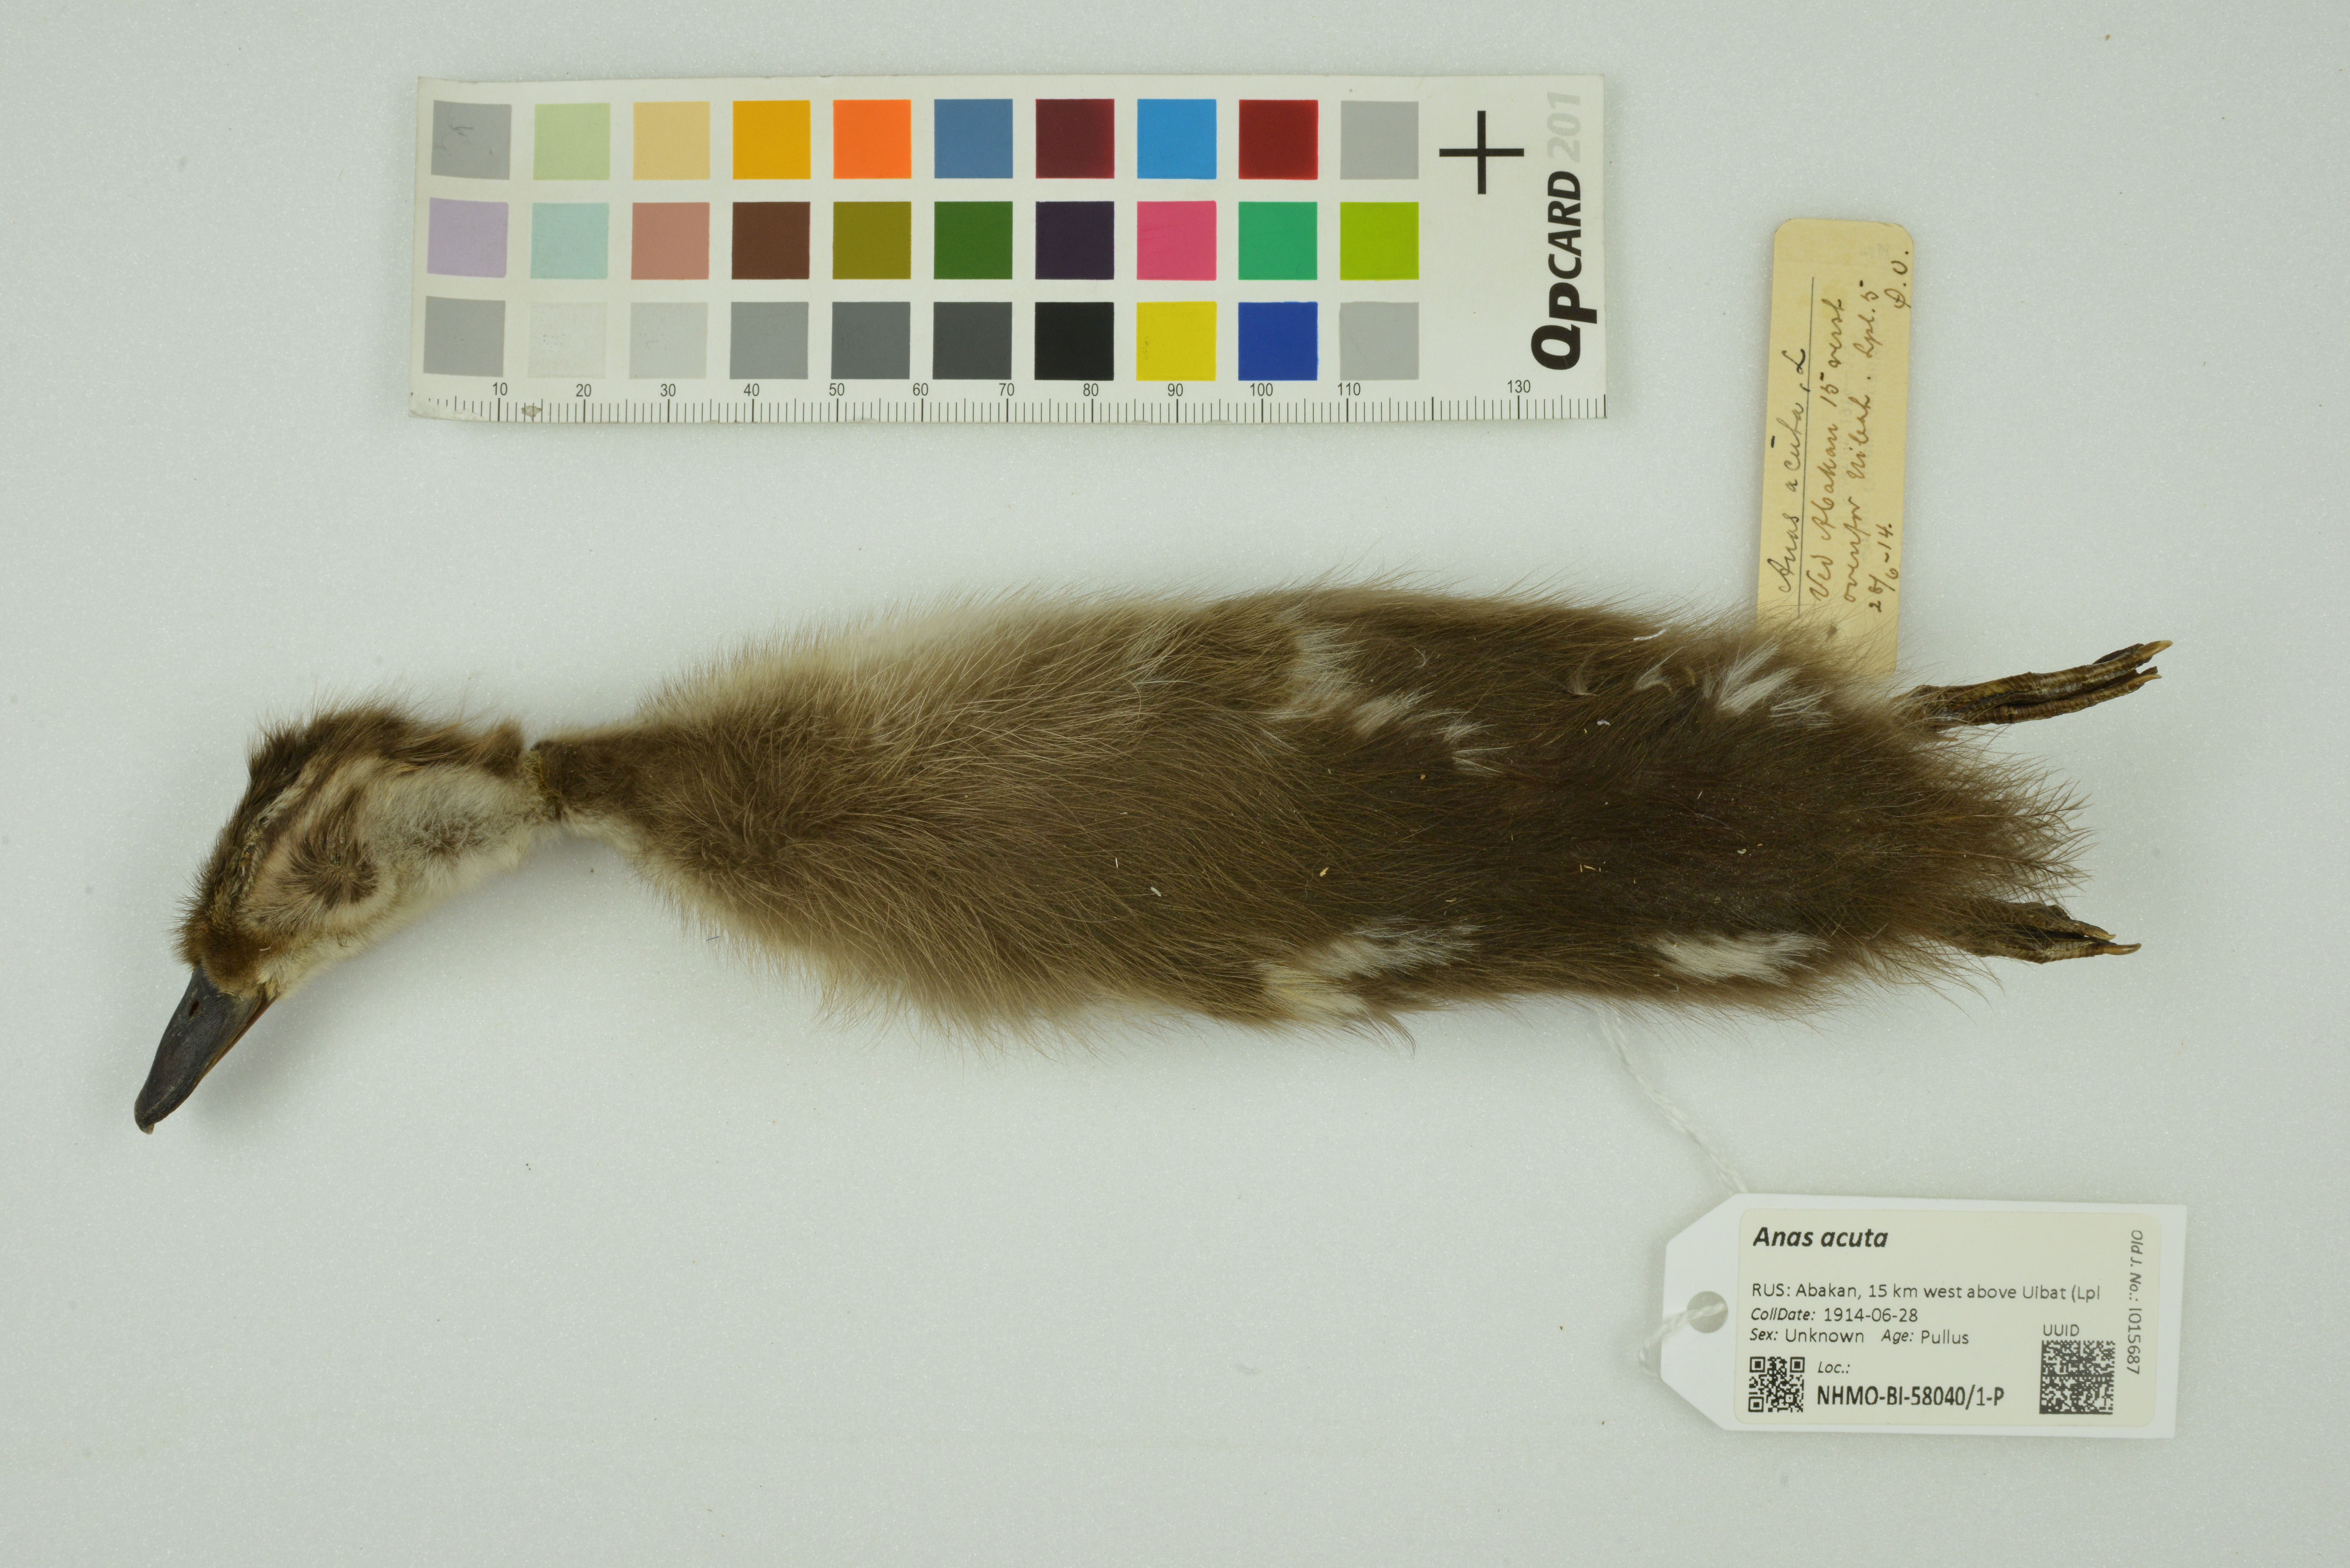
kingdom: Animalia
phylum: Chordata
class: Aves
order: Anseriformes
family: Anatidae
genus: Anas
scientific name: Anas acuta
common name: Northern pintail
